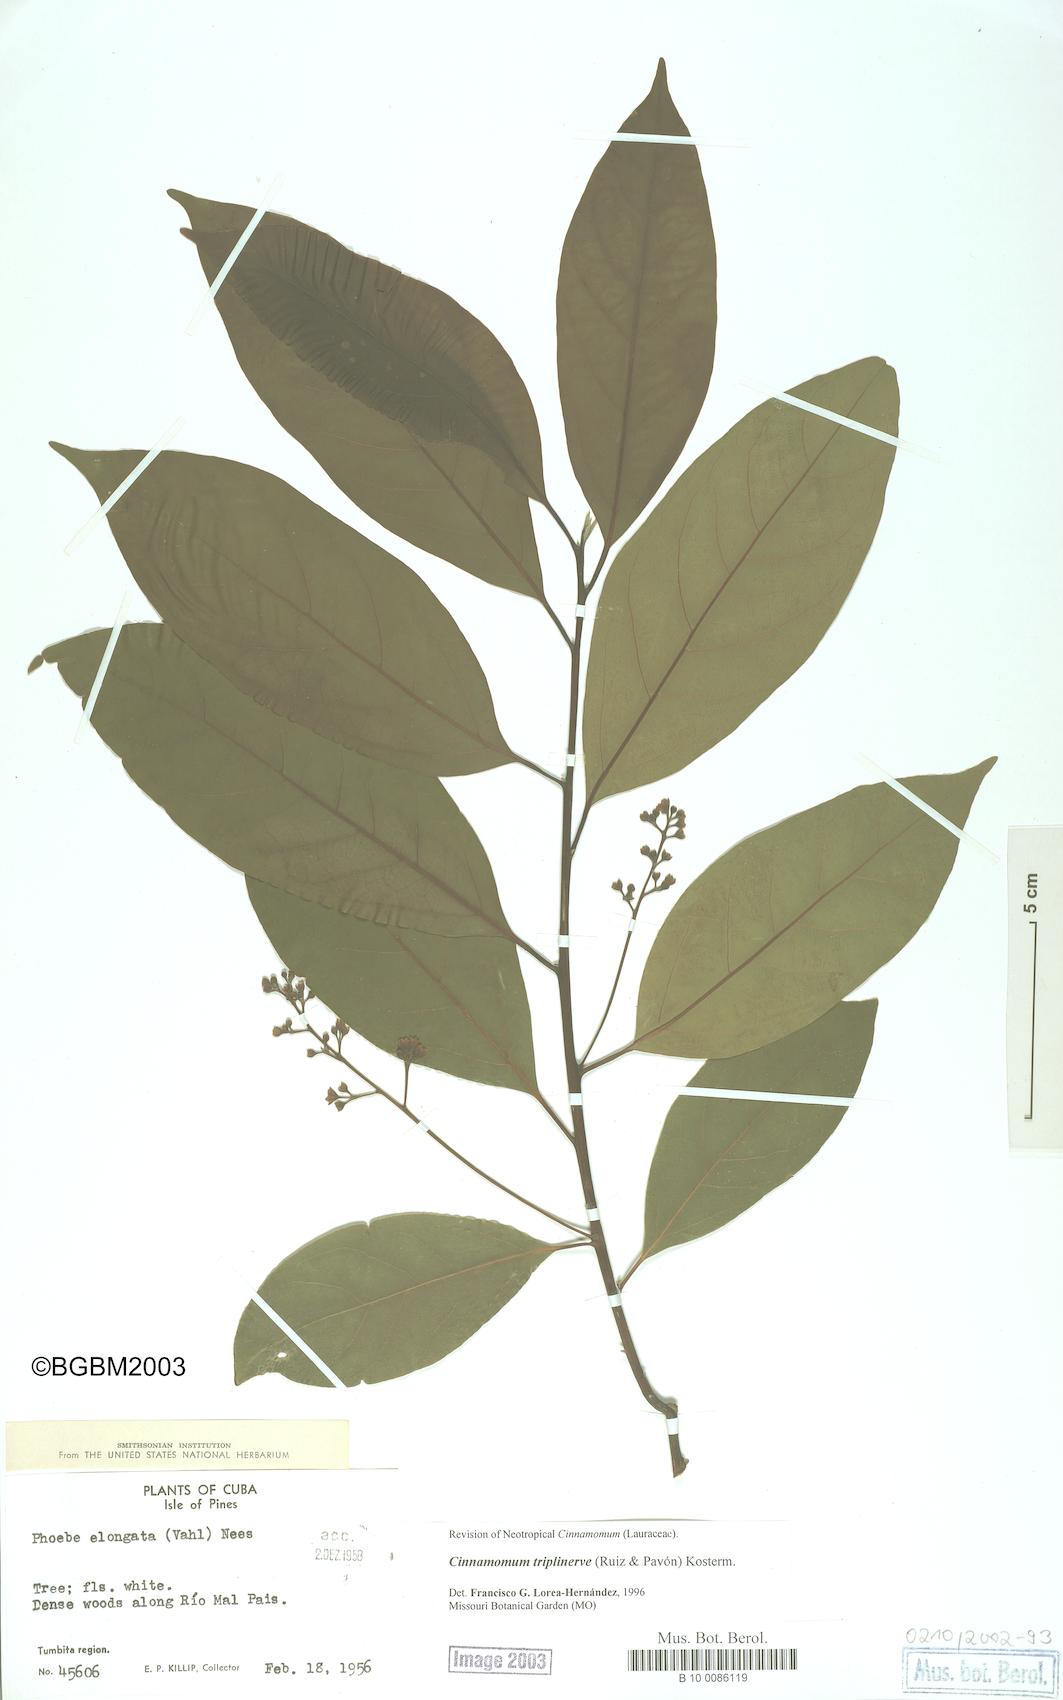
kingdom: Plantae
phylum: Tracheophyta
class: Magnoliopsida
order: Laurales
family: Lauraceae
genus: Aiouea
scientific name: Aiouea montana
